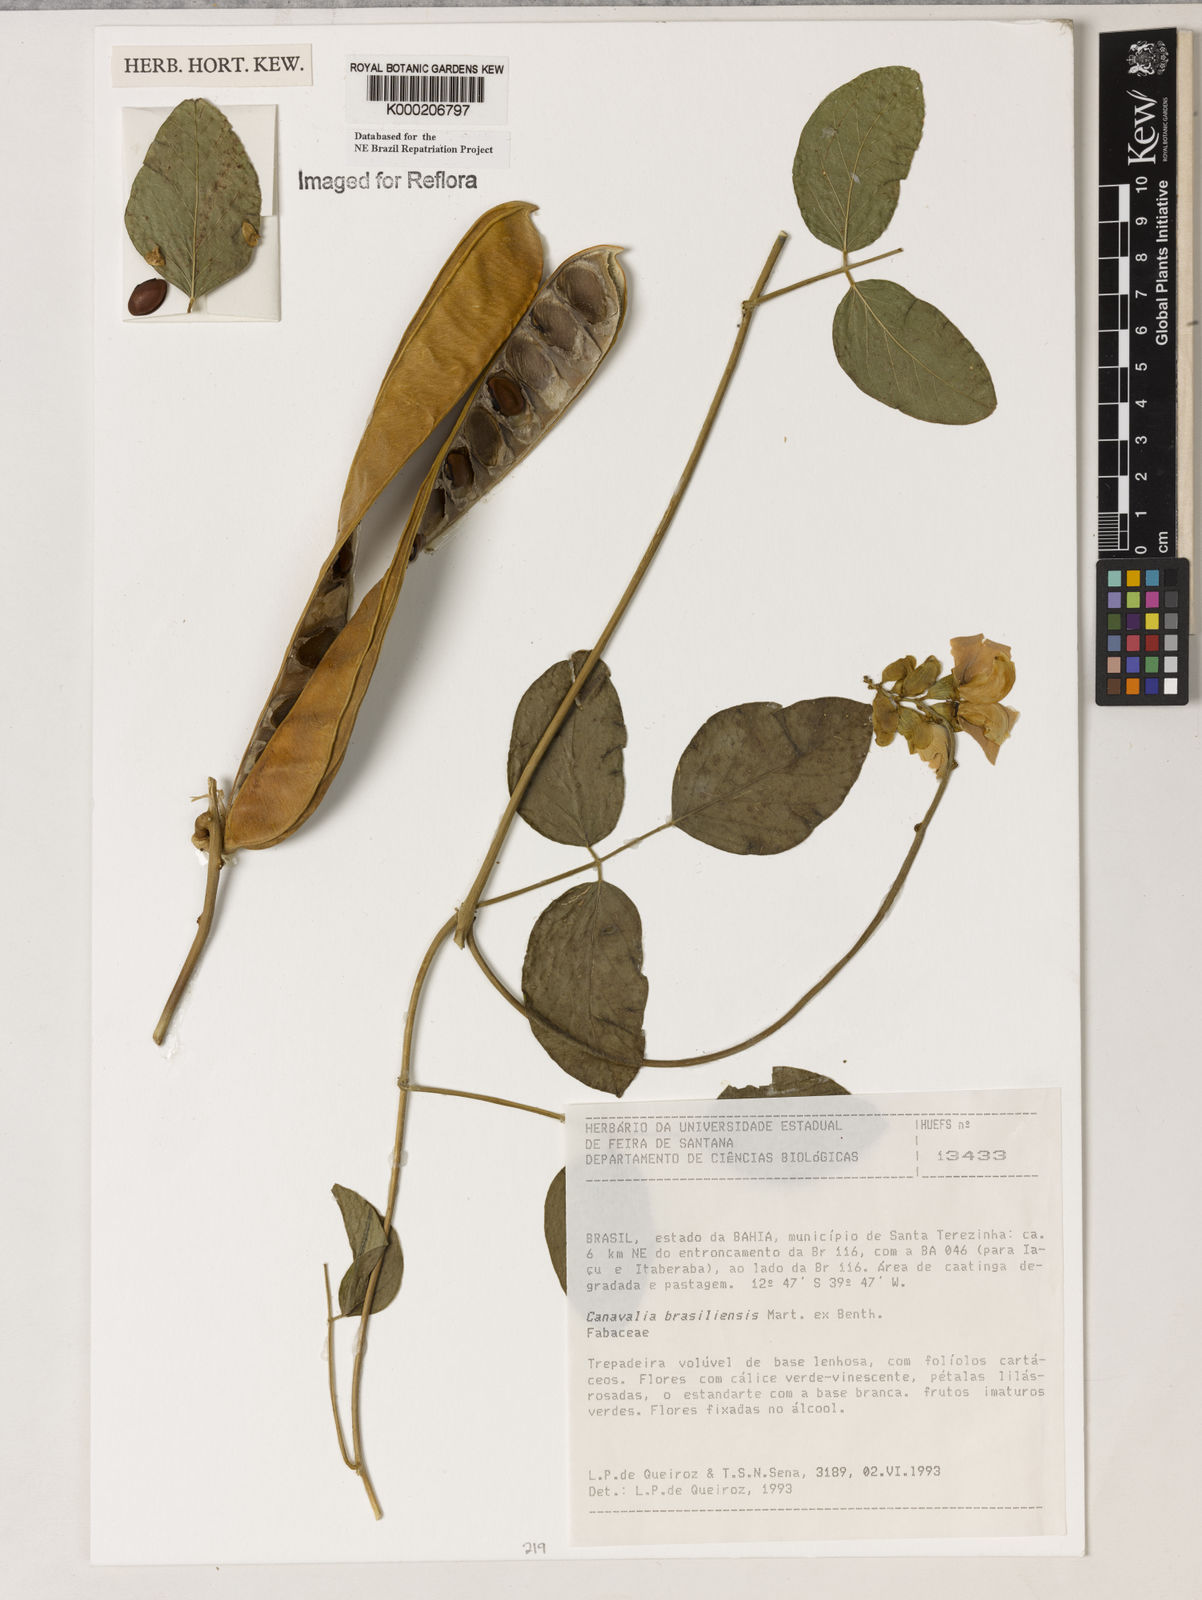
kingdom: Plantae
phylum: Tracheophyta
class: Magnoliopsida
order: Fabales
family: Fabaceae
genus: Canavalia
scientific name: Canavalia brasiliensis
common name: Barbicou-bean
